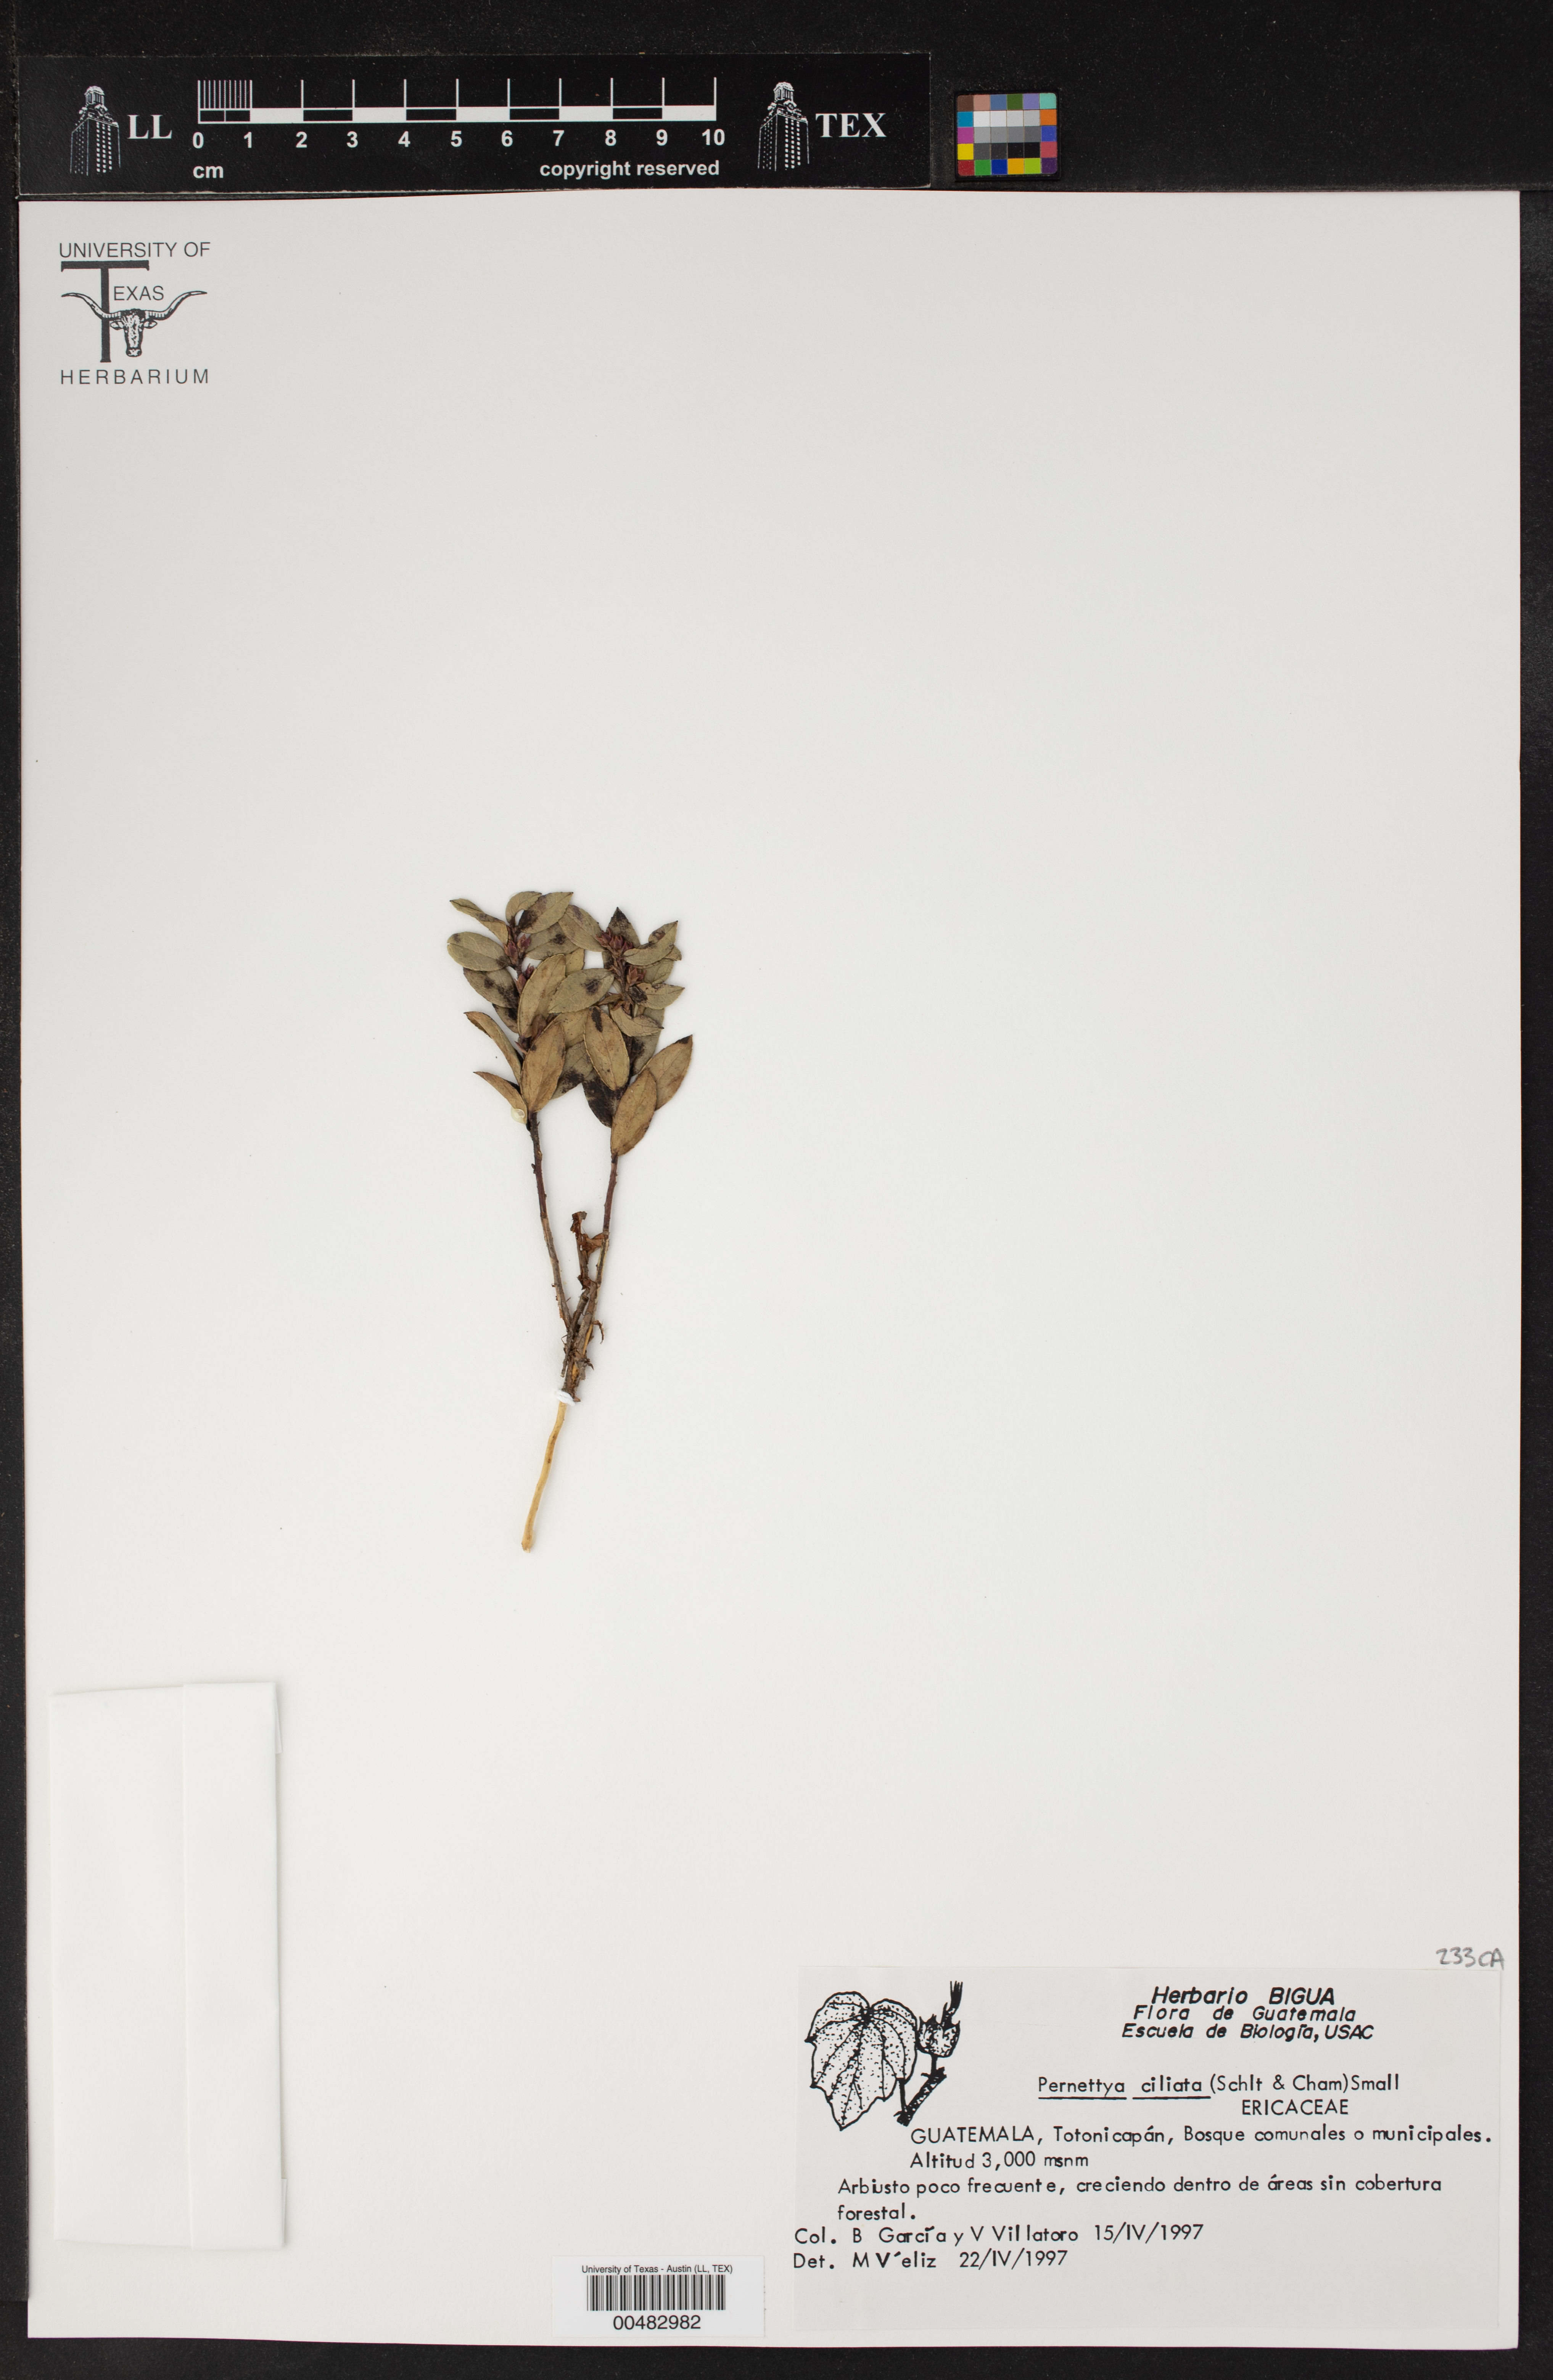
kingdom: Plantae
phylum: Tracheophyta
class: Magnoliopsida
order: Ericales
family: Ericaceae
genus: Gaultheria
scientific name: Gaultheria myrsinoides
